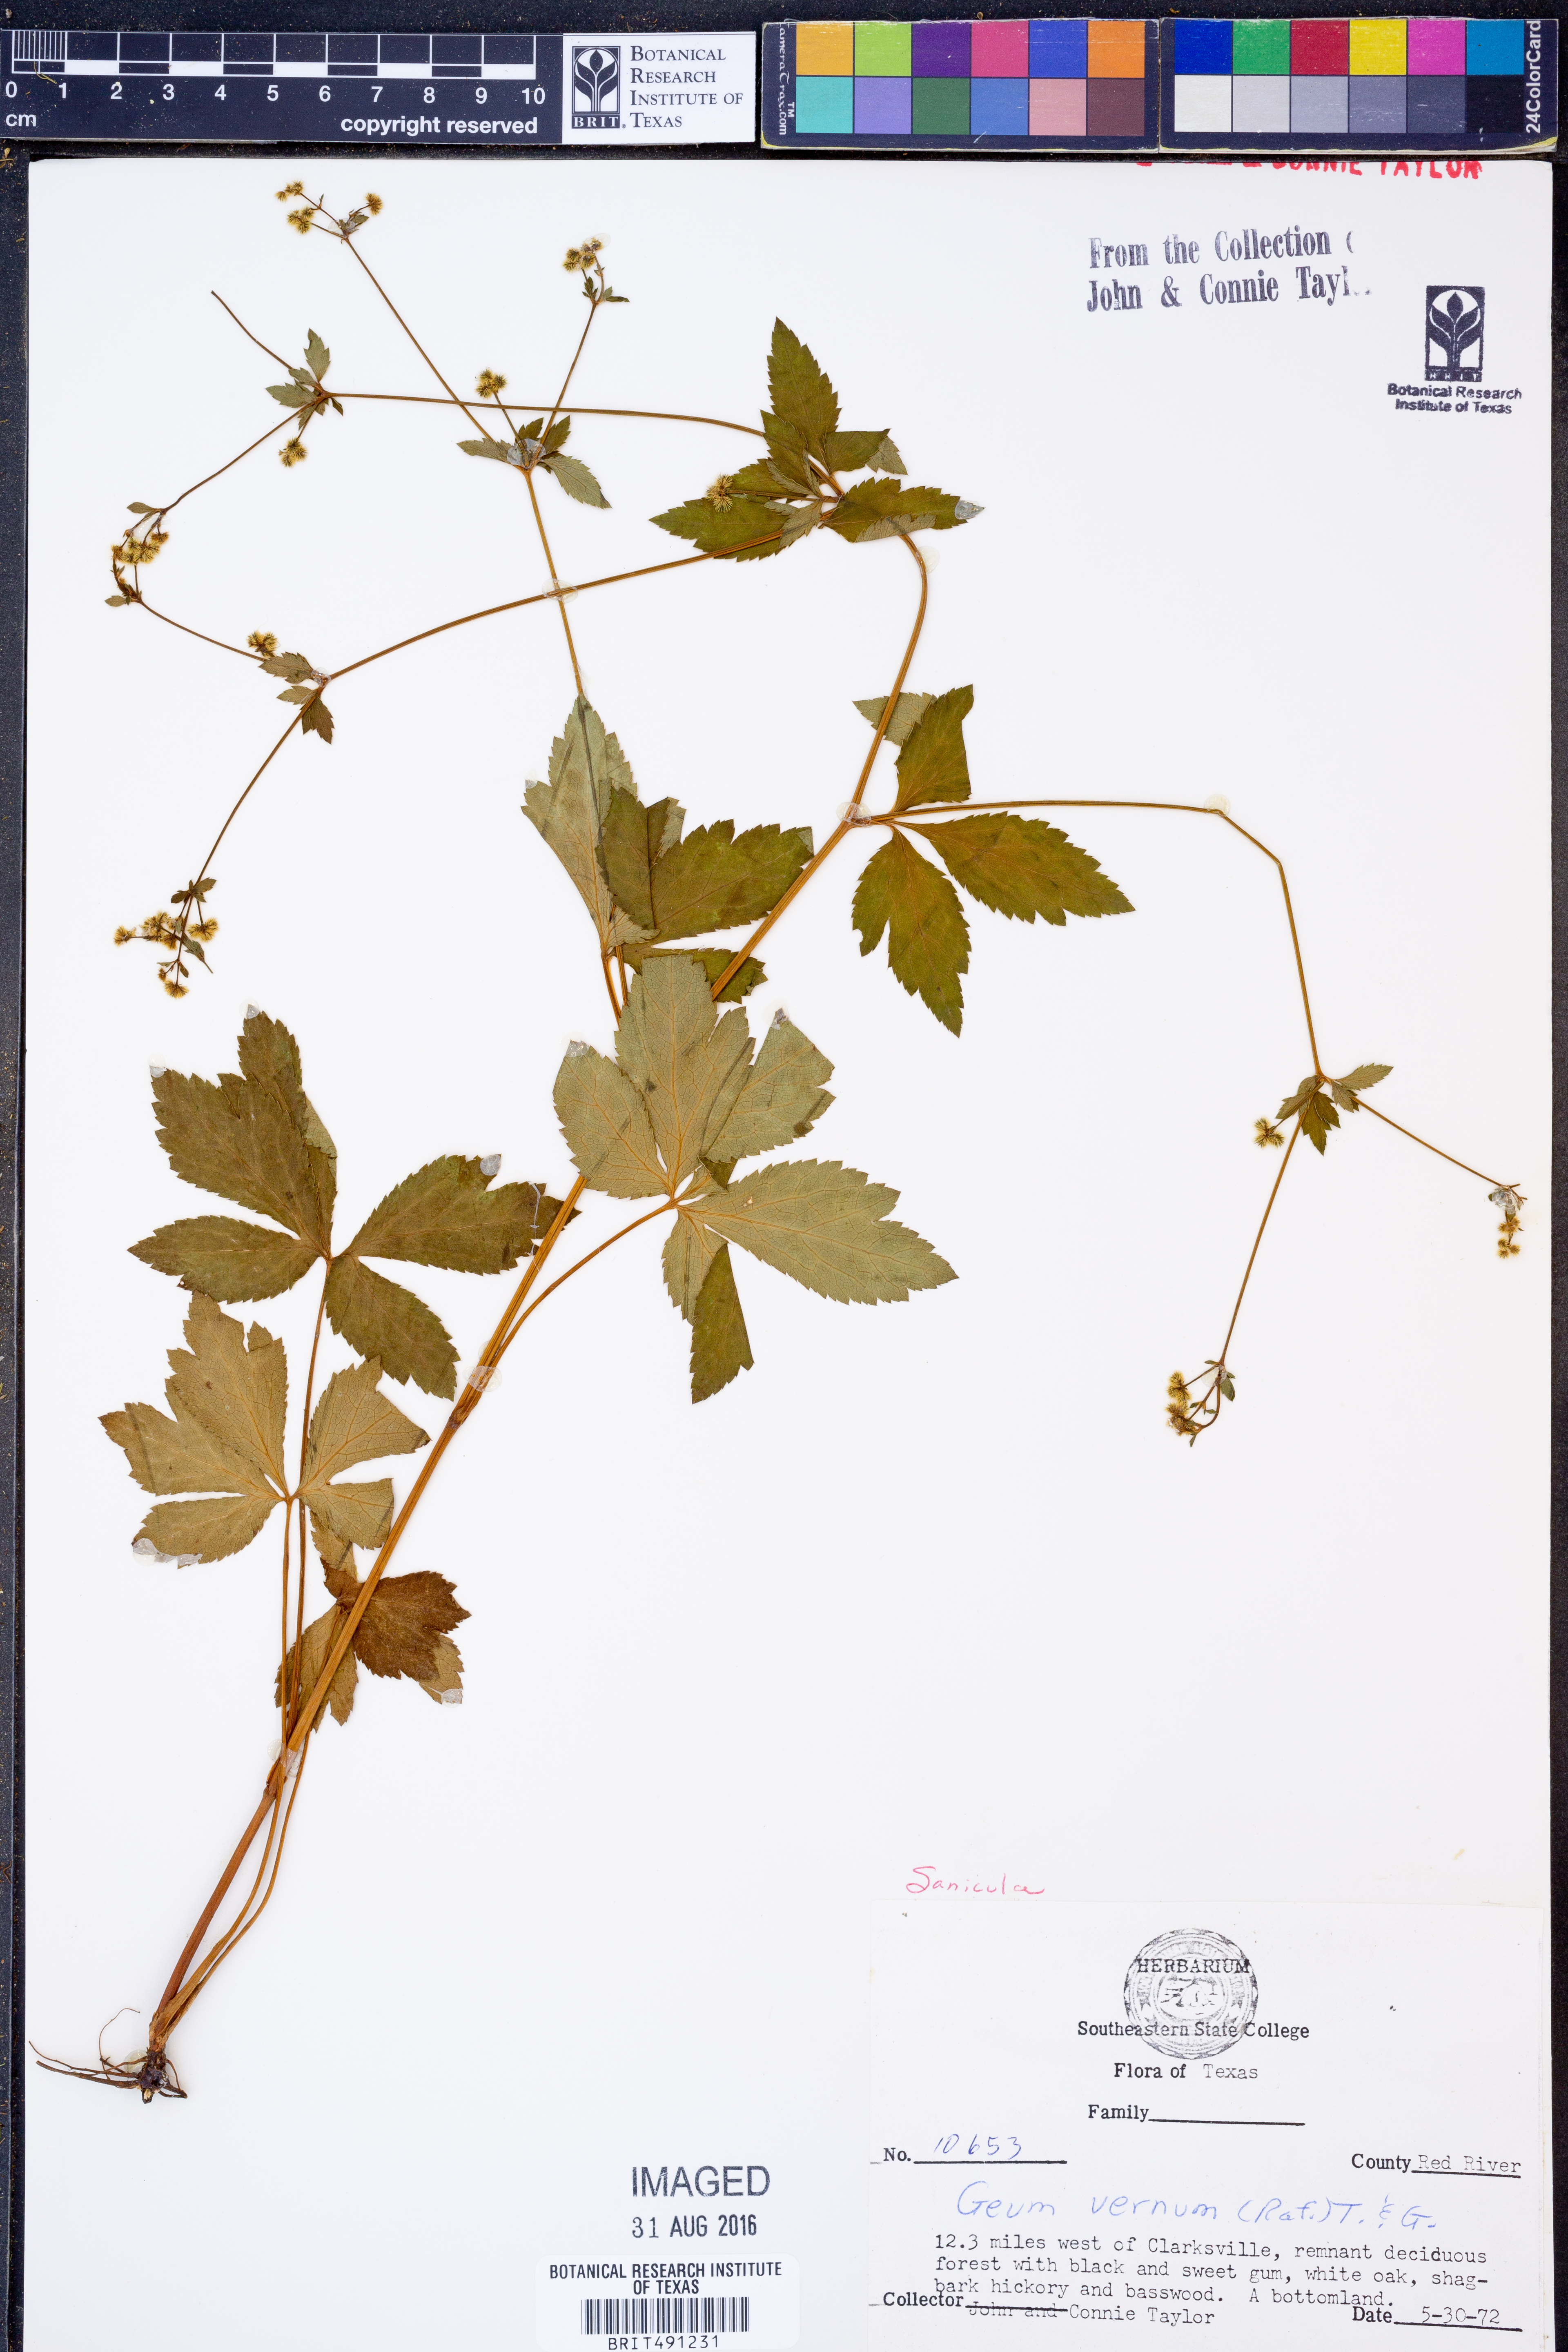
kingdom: Plantae
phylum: Tracheophyta
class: Magnoliopsida
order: Apiales
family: Apiaceae
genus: Sanicula
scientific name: Sanicula
